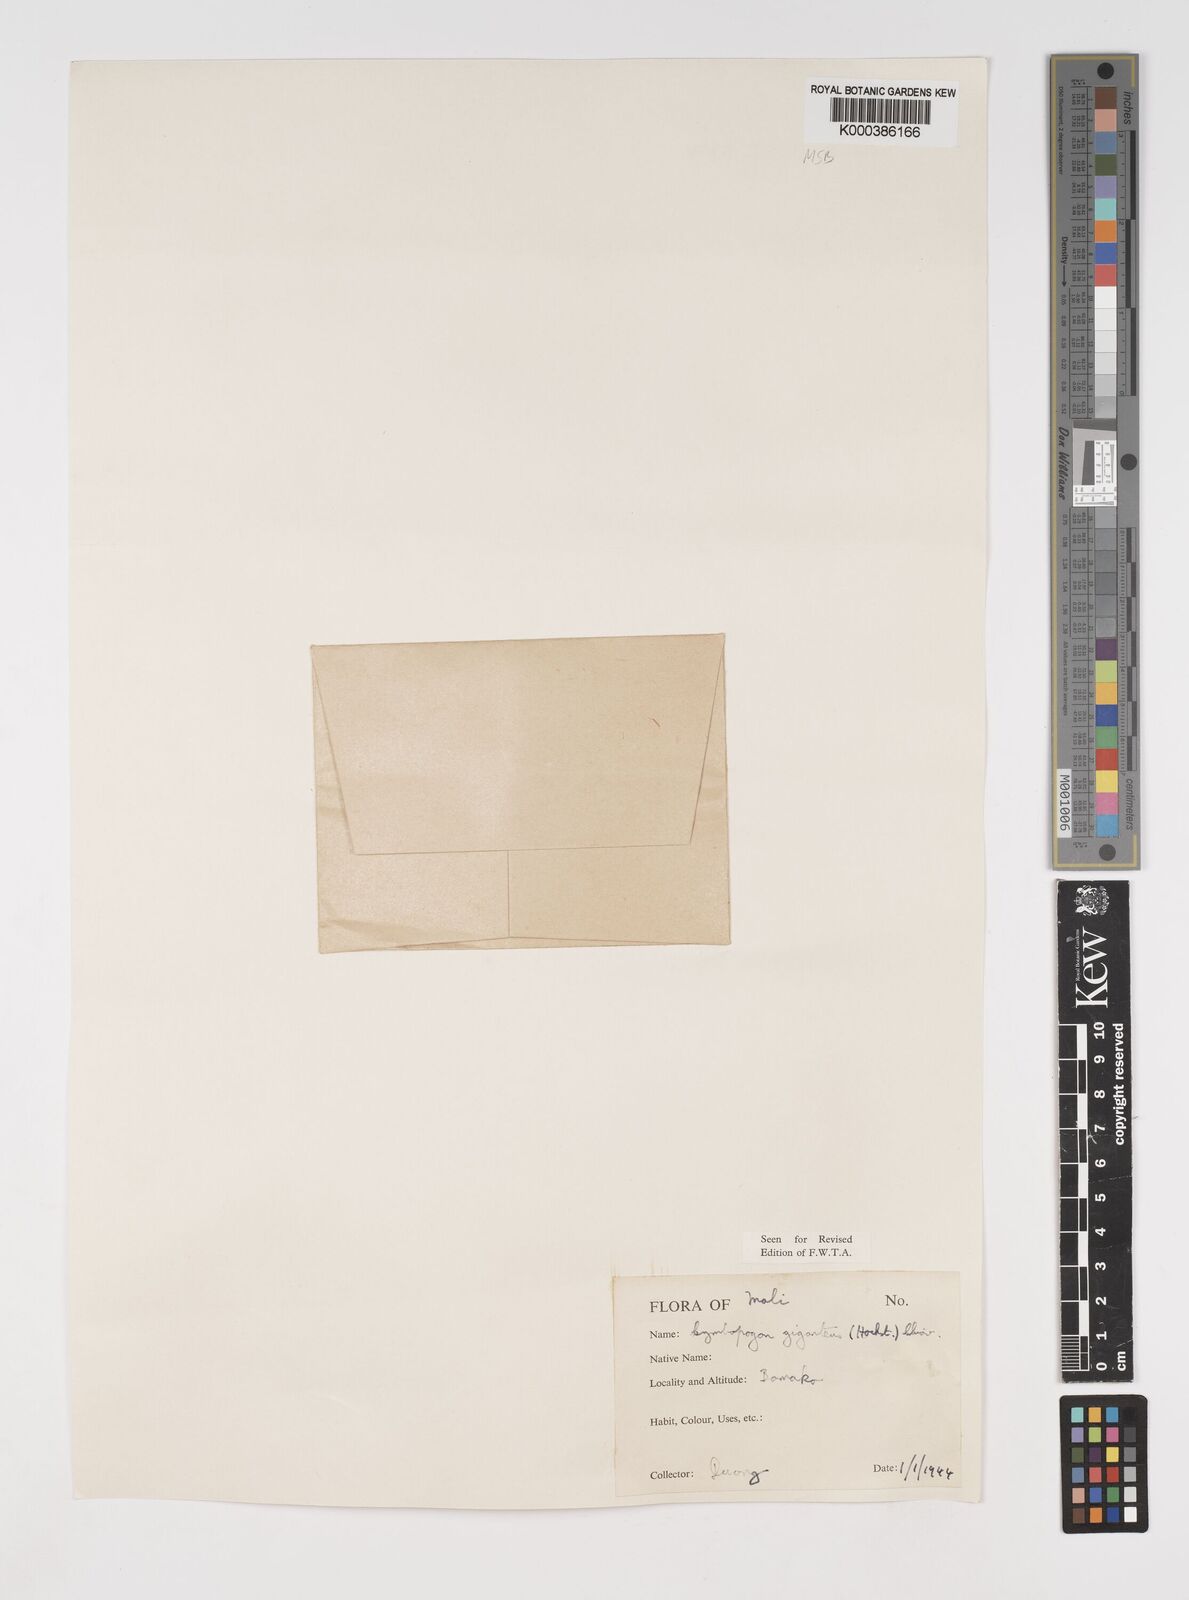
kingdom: Plantae
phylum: Tracheophyta
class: Liliopsida
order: Poales
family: Poaceae
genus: Cymbopogon
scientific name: Cymbopogon giganteus
